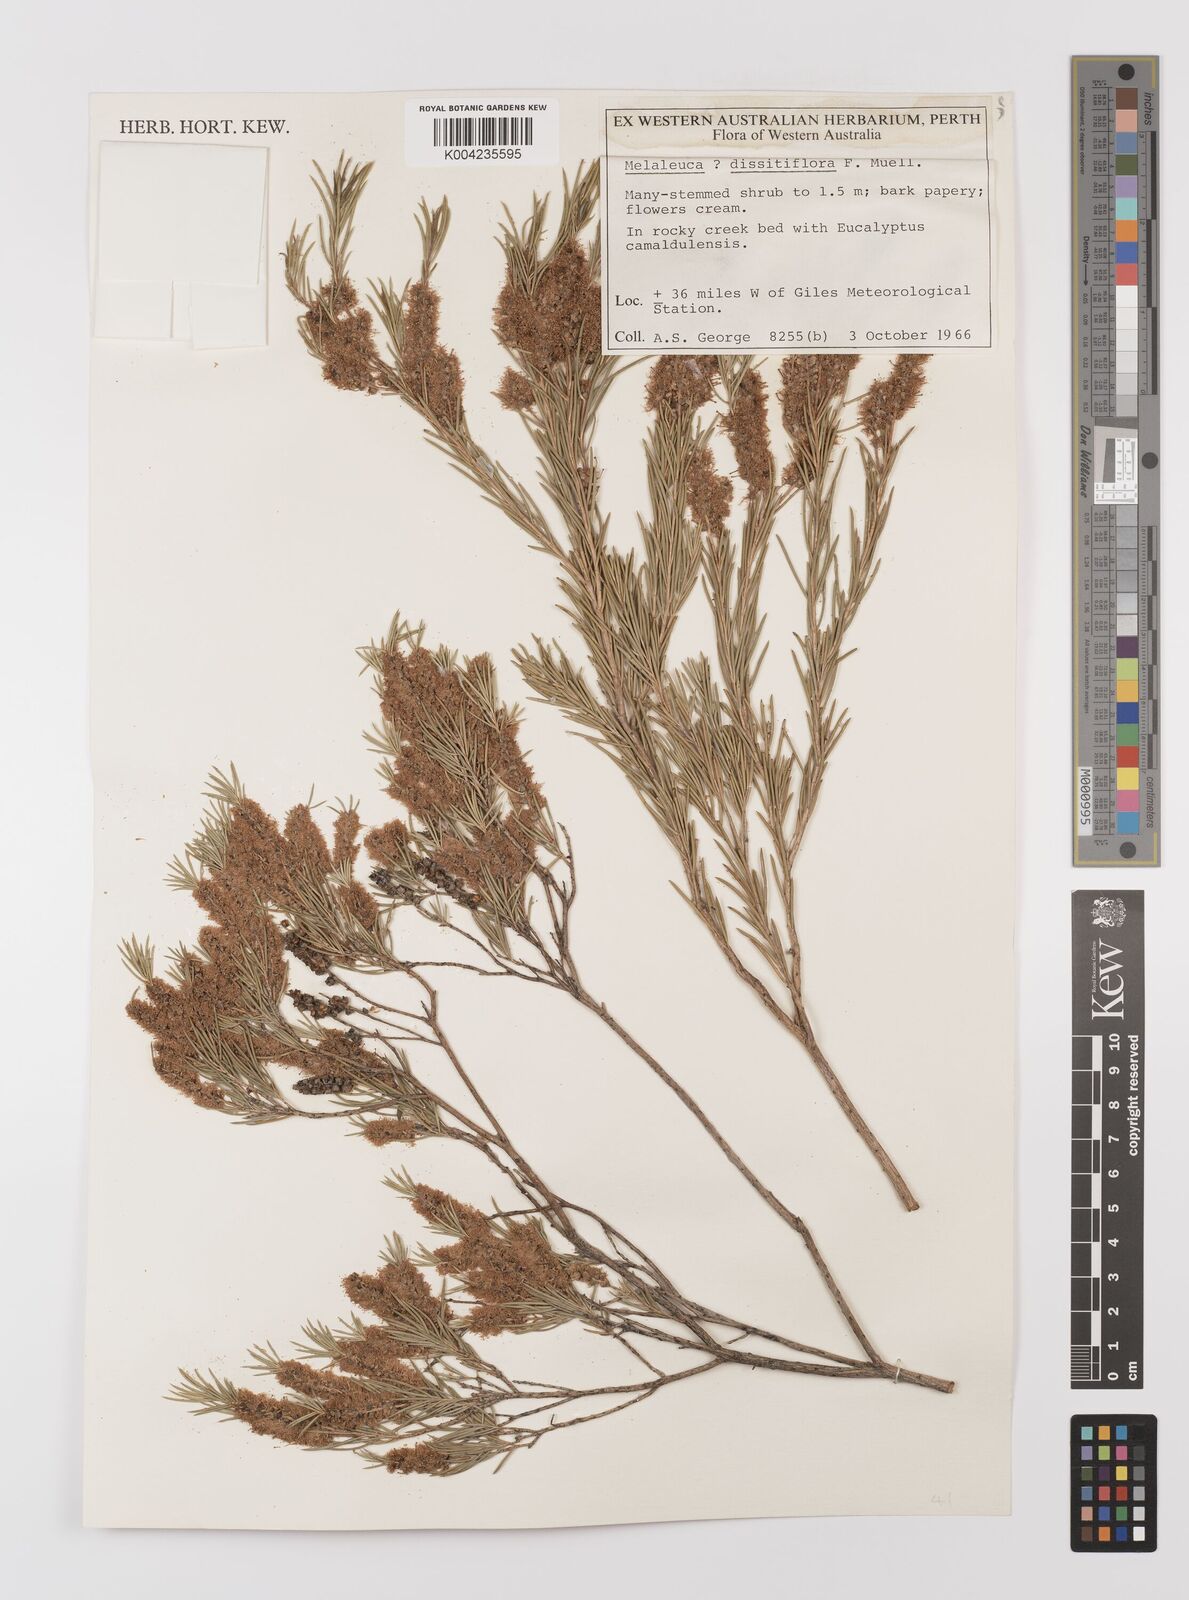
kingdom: Plantae
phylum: Tracheophyta
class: Magnoliopsida
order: Myrtales
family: Myrtaceae
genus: Melaleuca
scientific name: Melaleuca dissitiflora
